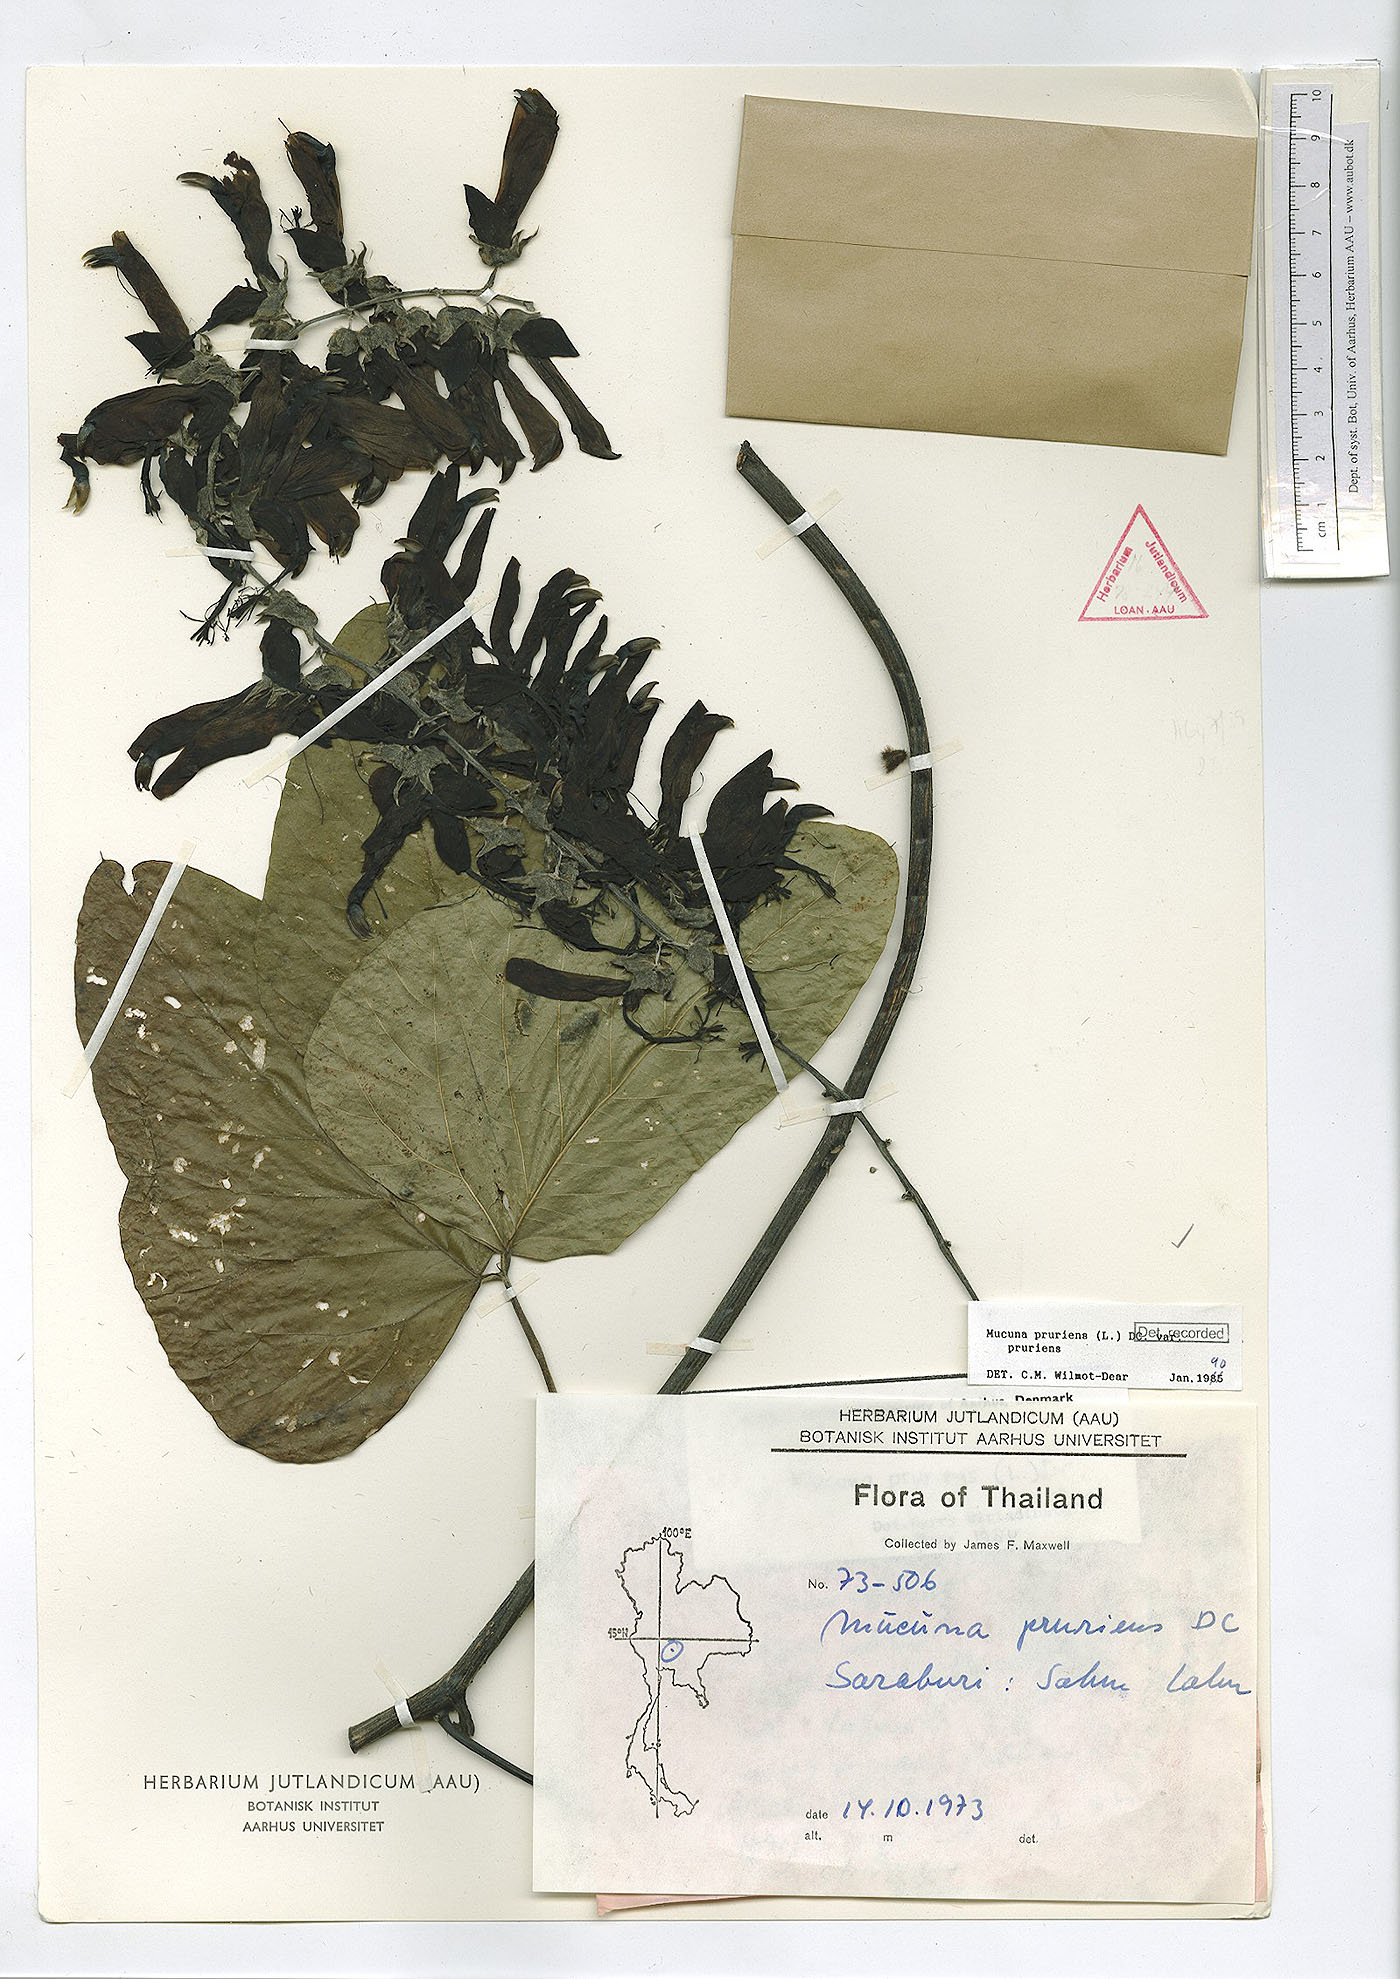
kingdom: Plantae
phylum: Tracheophyta
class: Magnoliopsida
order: Fabales
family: Fabaceae
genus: Mucuna
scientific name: Mucuna pruriens
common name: Cow-itch
